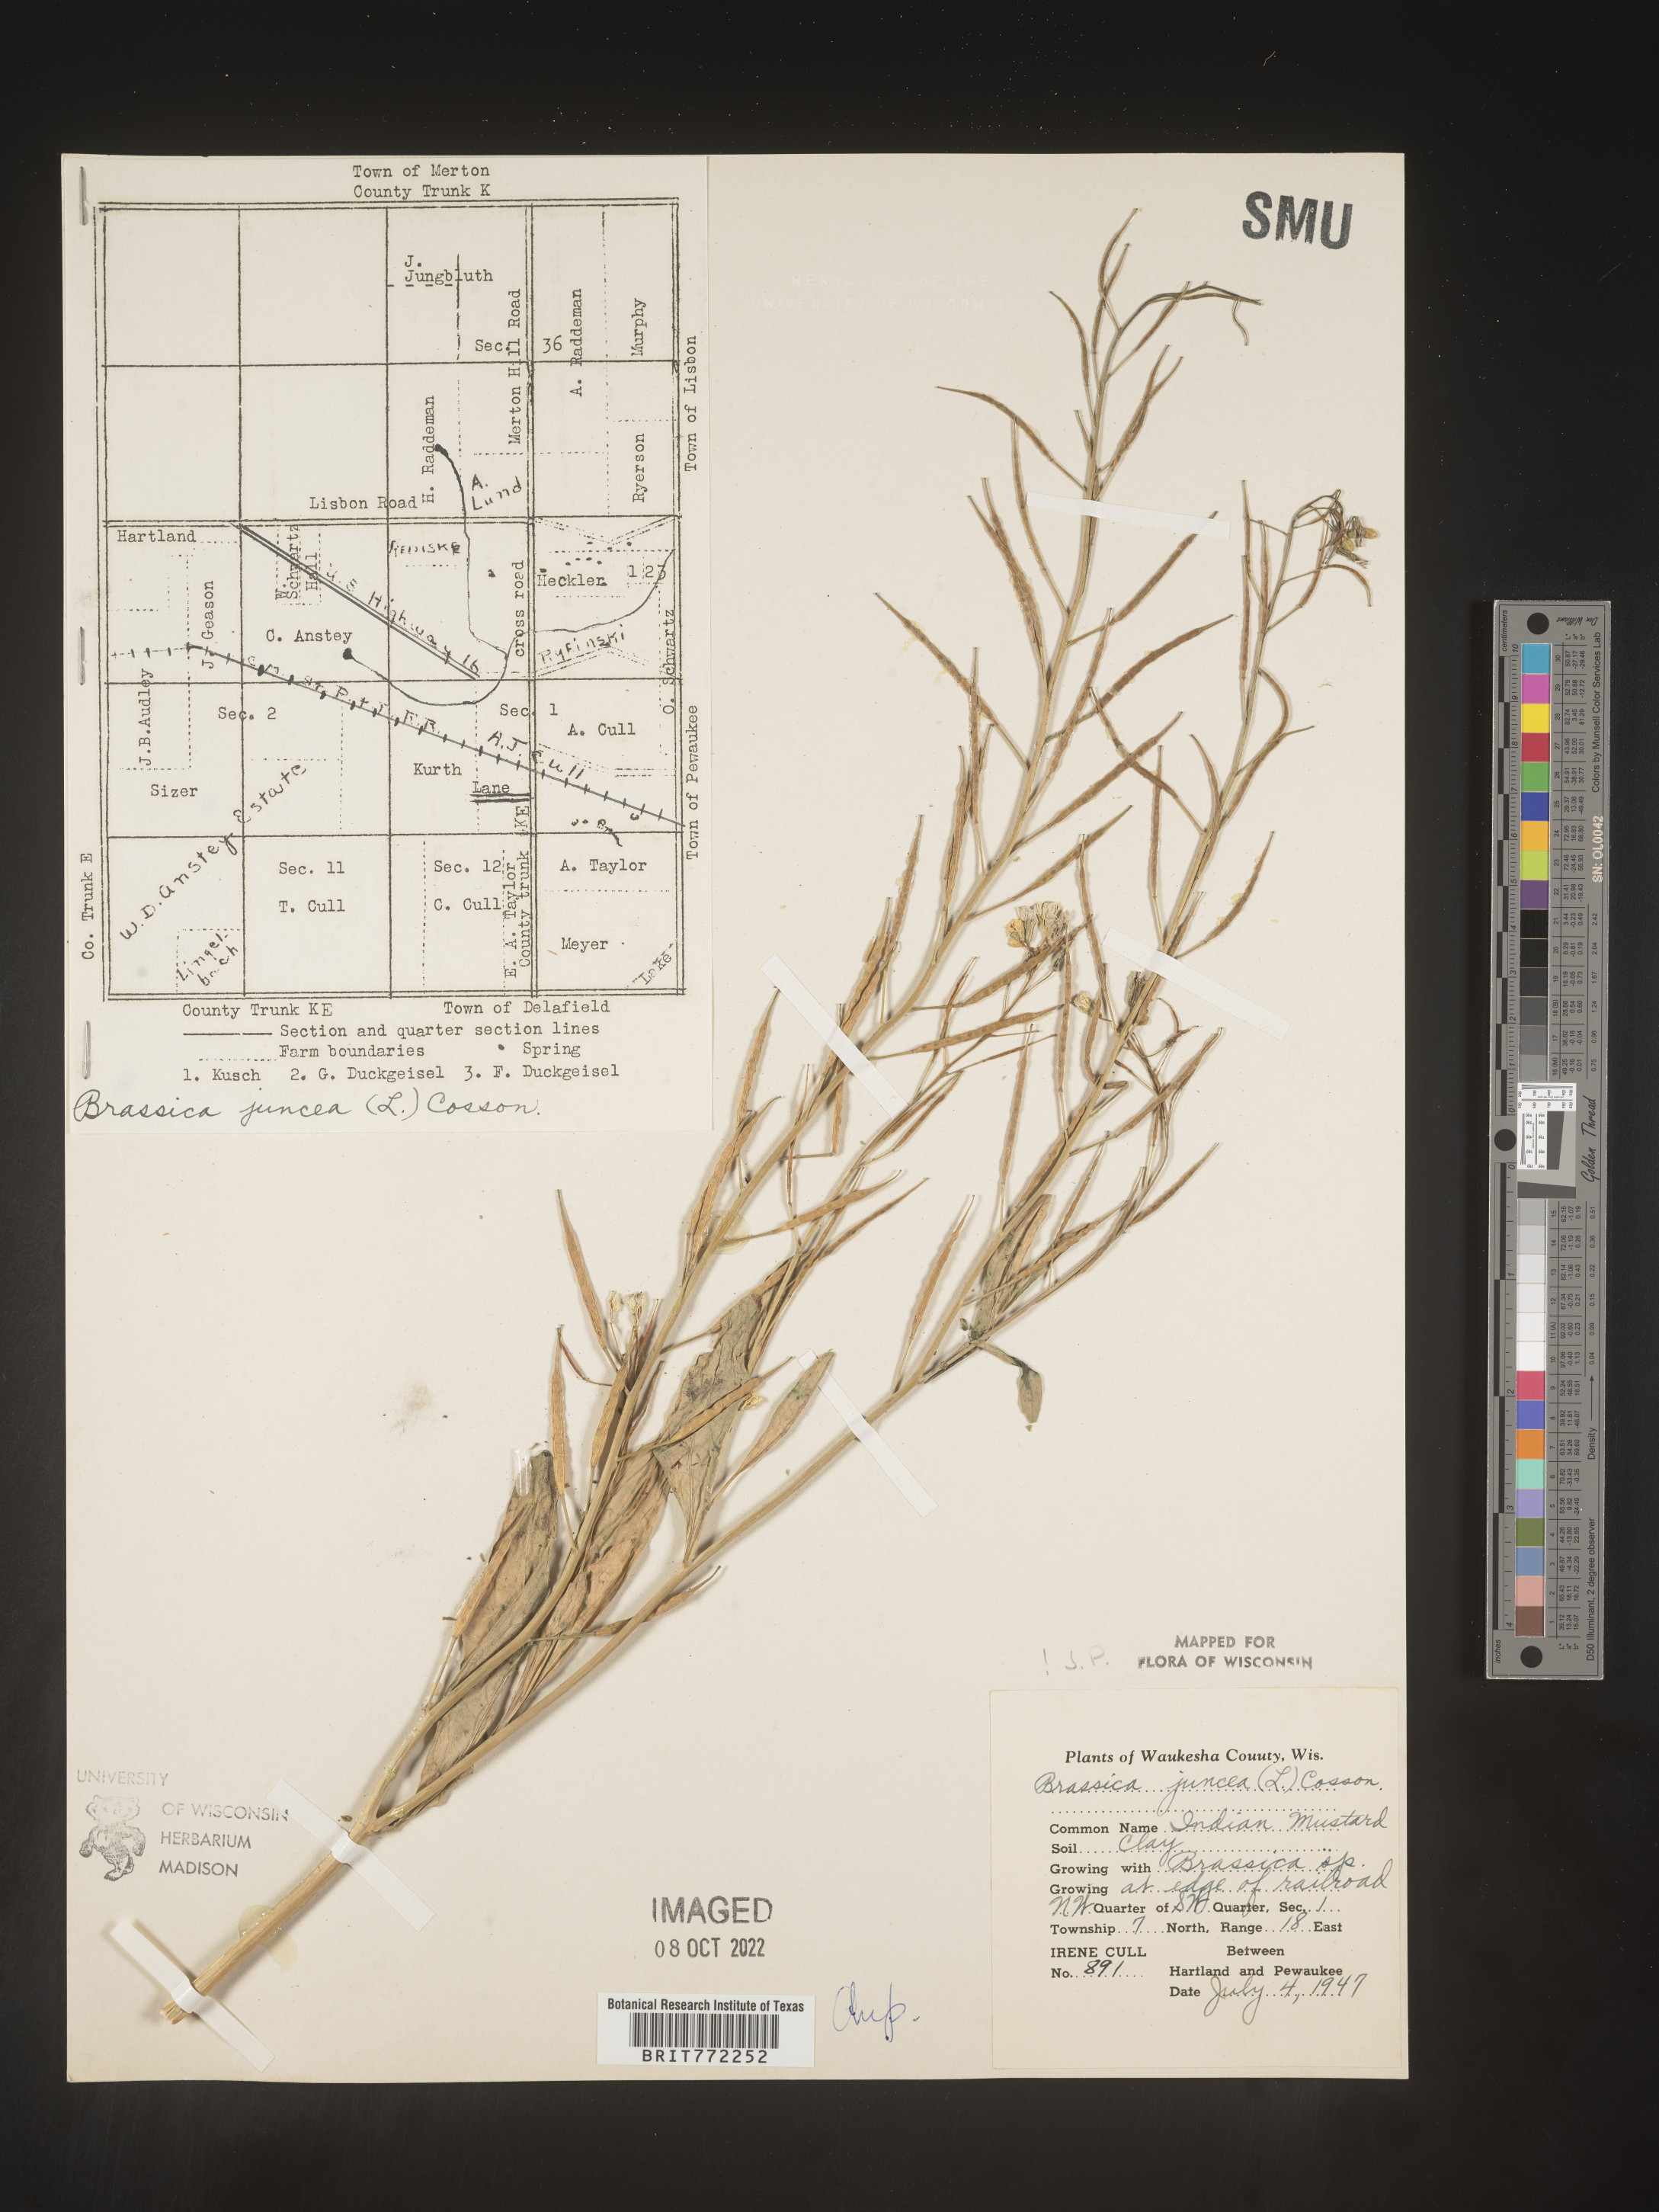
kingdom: Plantae
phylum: Tracheophyta
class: Magnoliopsida
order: Brassicales
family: Brassicaceae
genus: Brassica
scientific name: Brassica juncea
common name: Brown mustard
